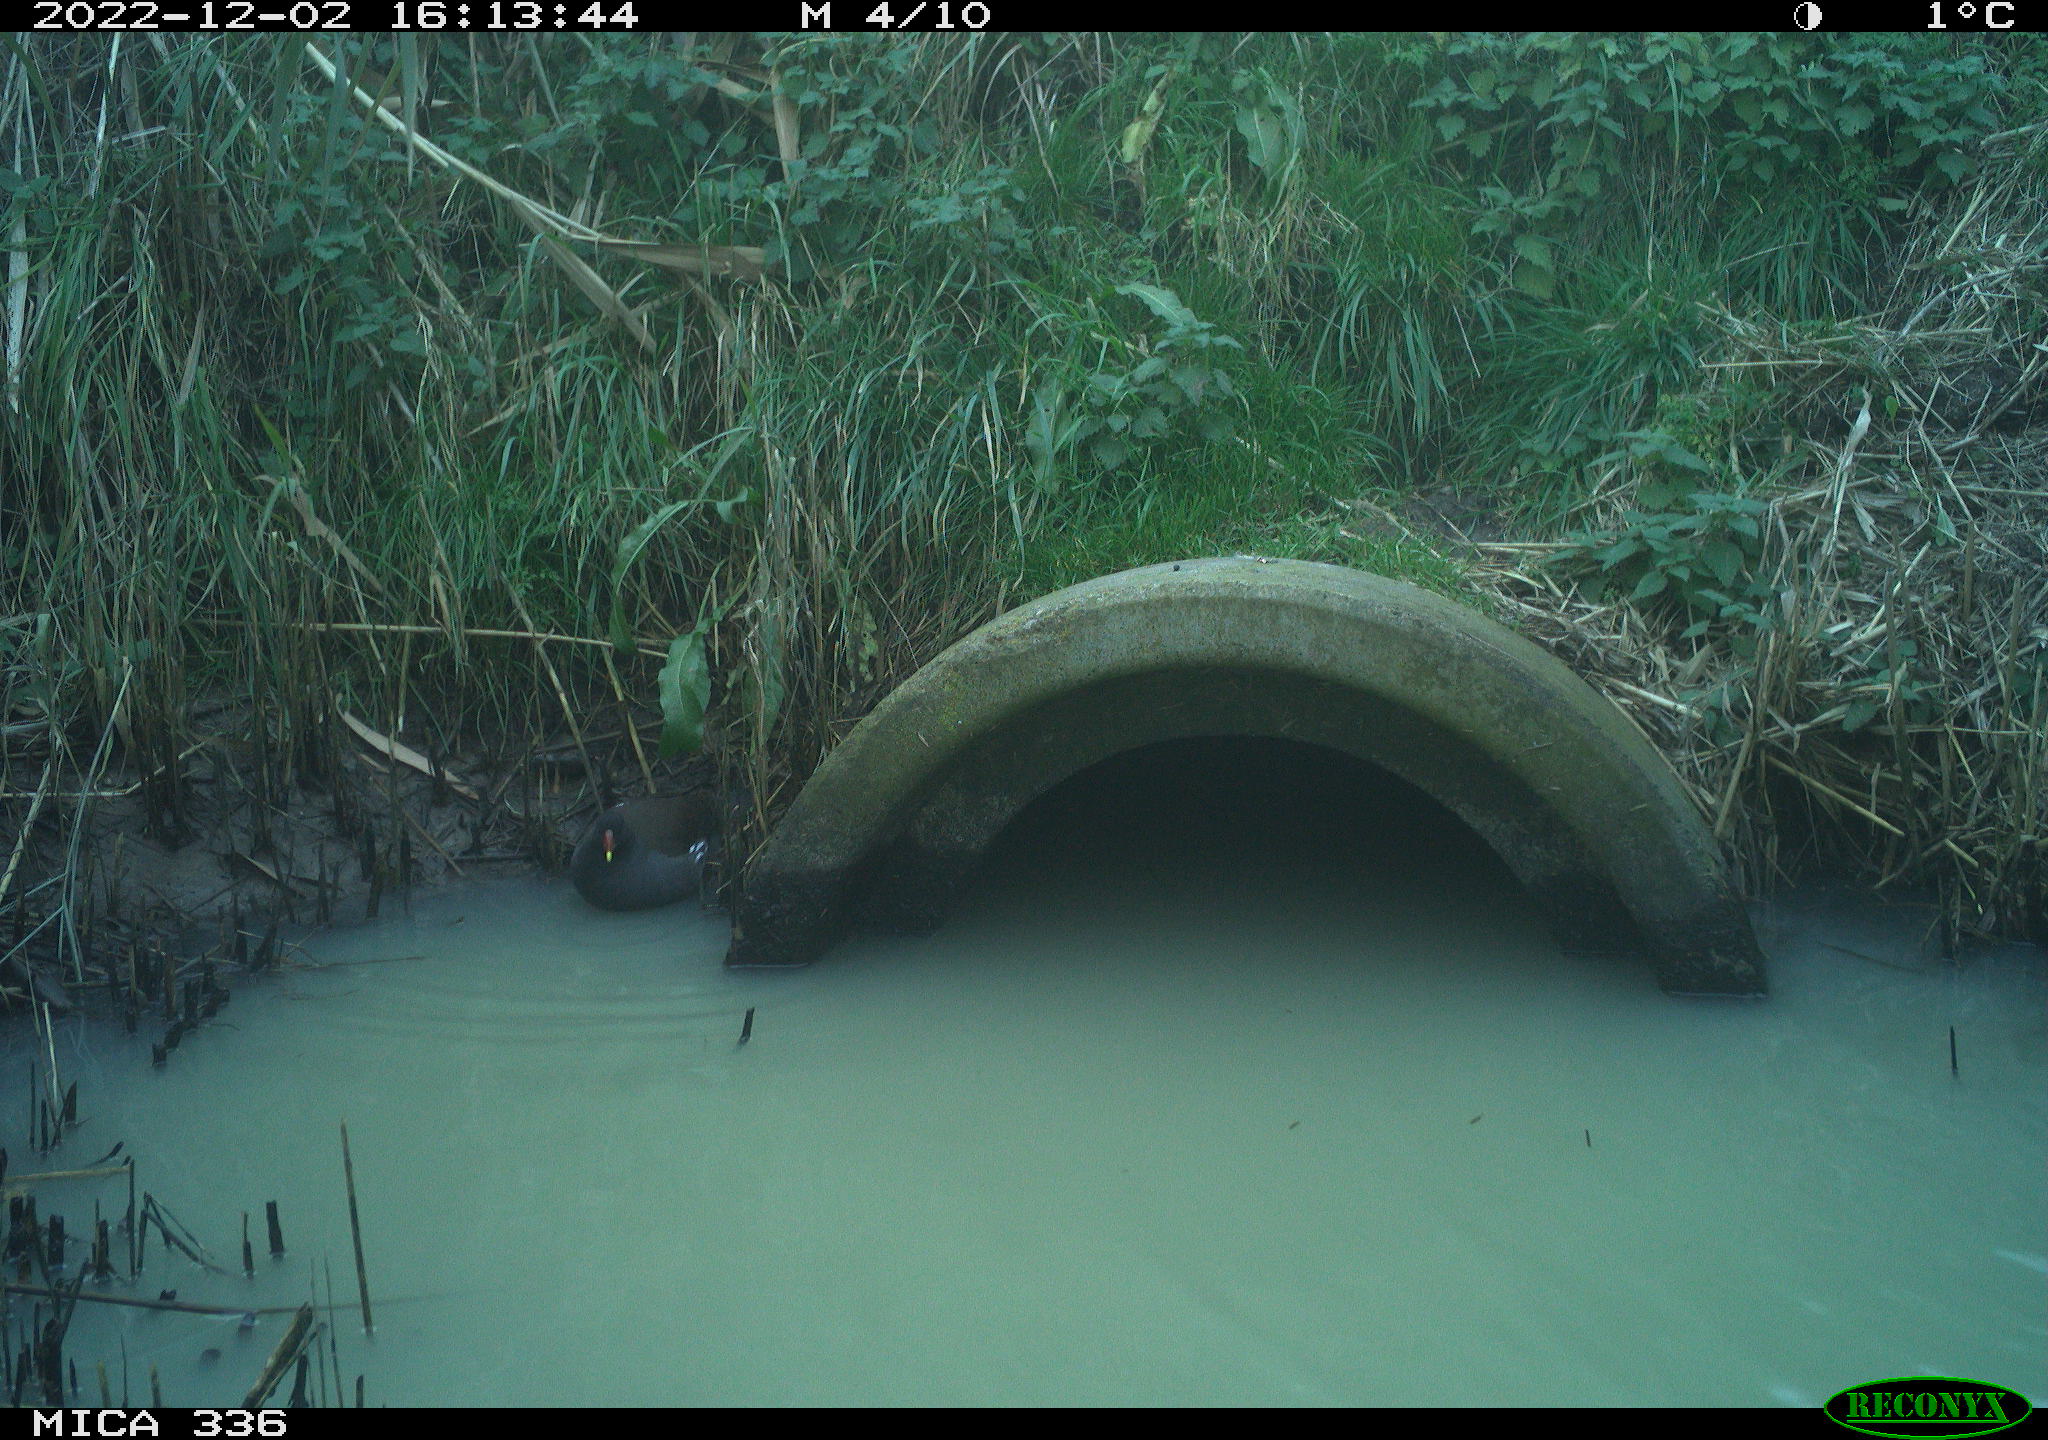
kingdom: Animalia
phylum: Chordata
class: Aves
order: Gruiformes
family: Rallidae
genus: Gallinula
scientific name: Gallinula chloropus
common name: Common moorhen
